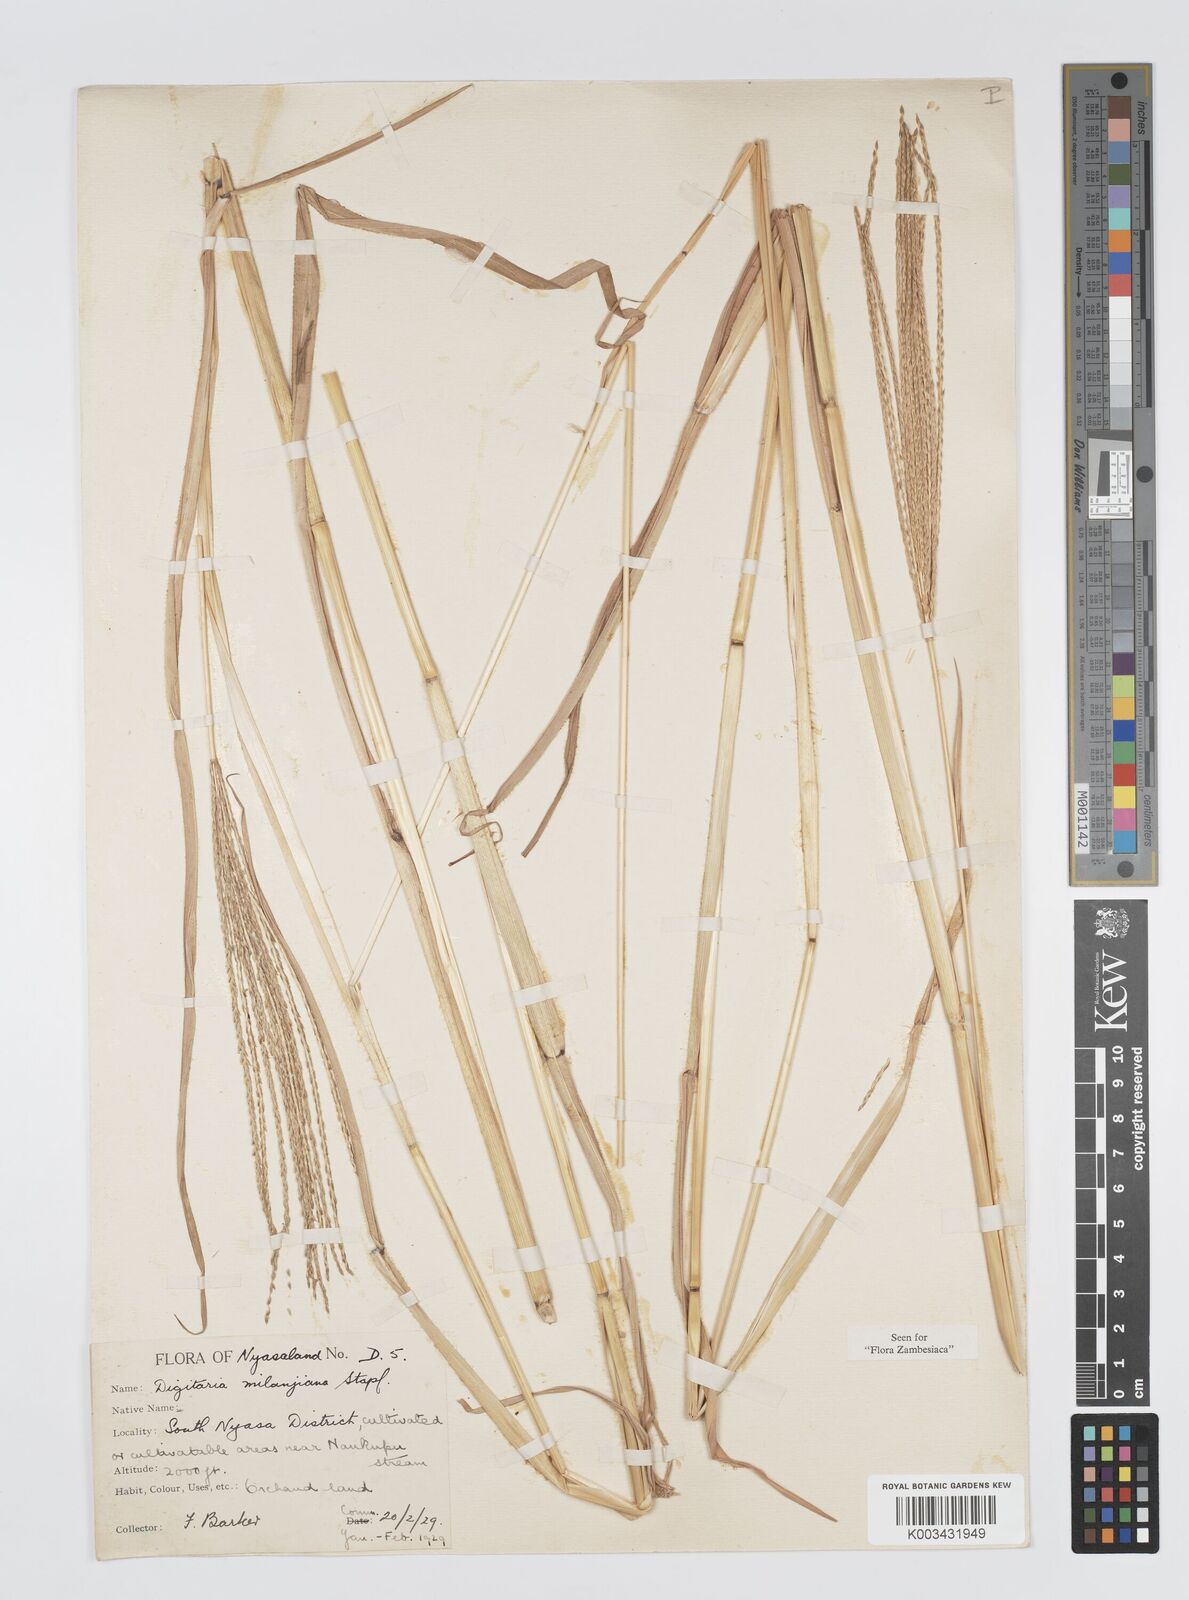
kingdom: Plantae
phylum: Tracheophyta
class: Liliopsida
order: Poales
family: Poaceae
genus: Digitaria
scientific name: Digitaria milanjiana
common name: Madagascar crabgrass
